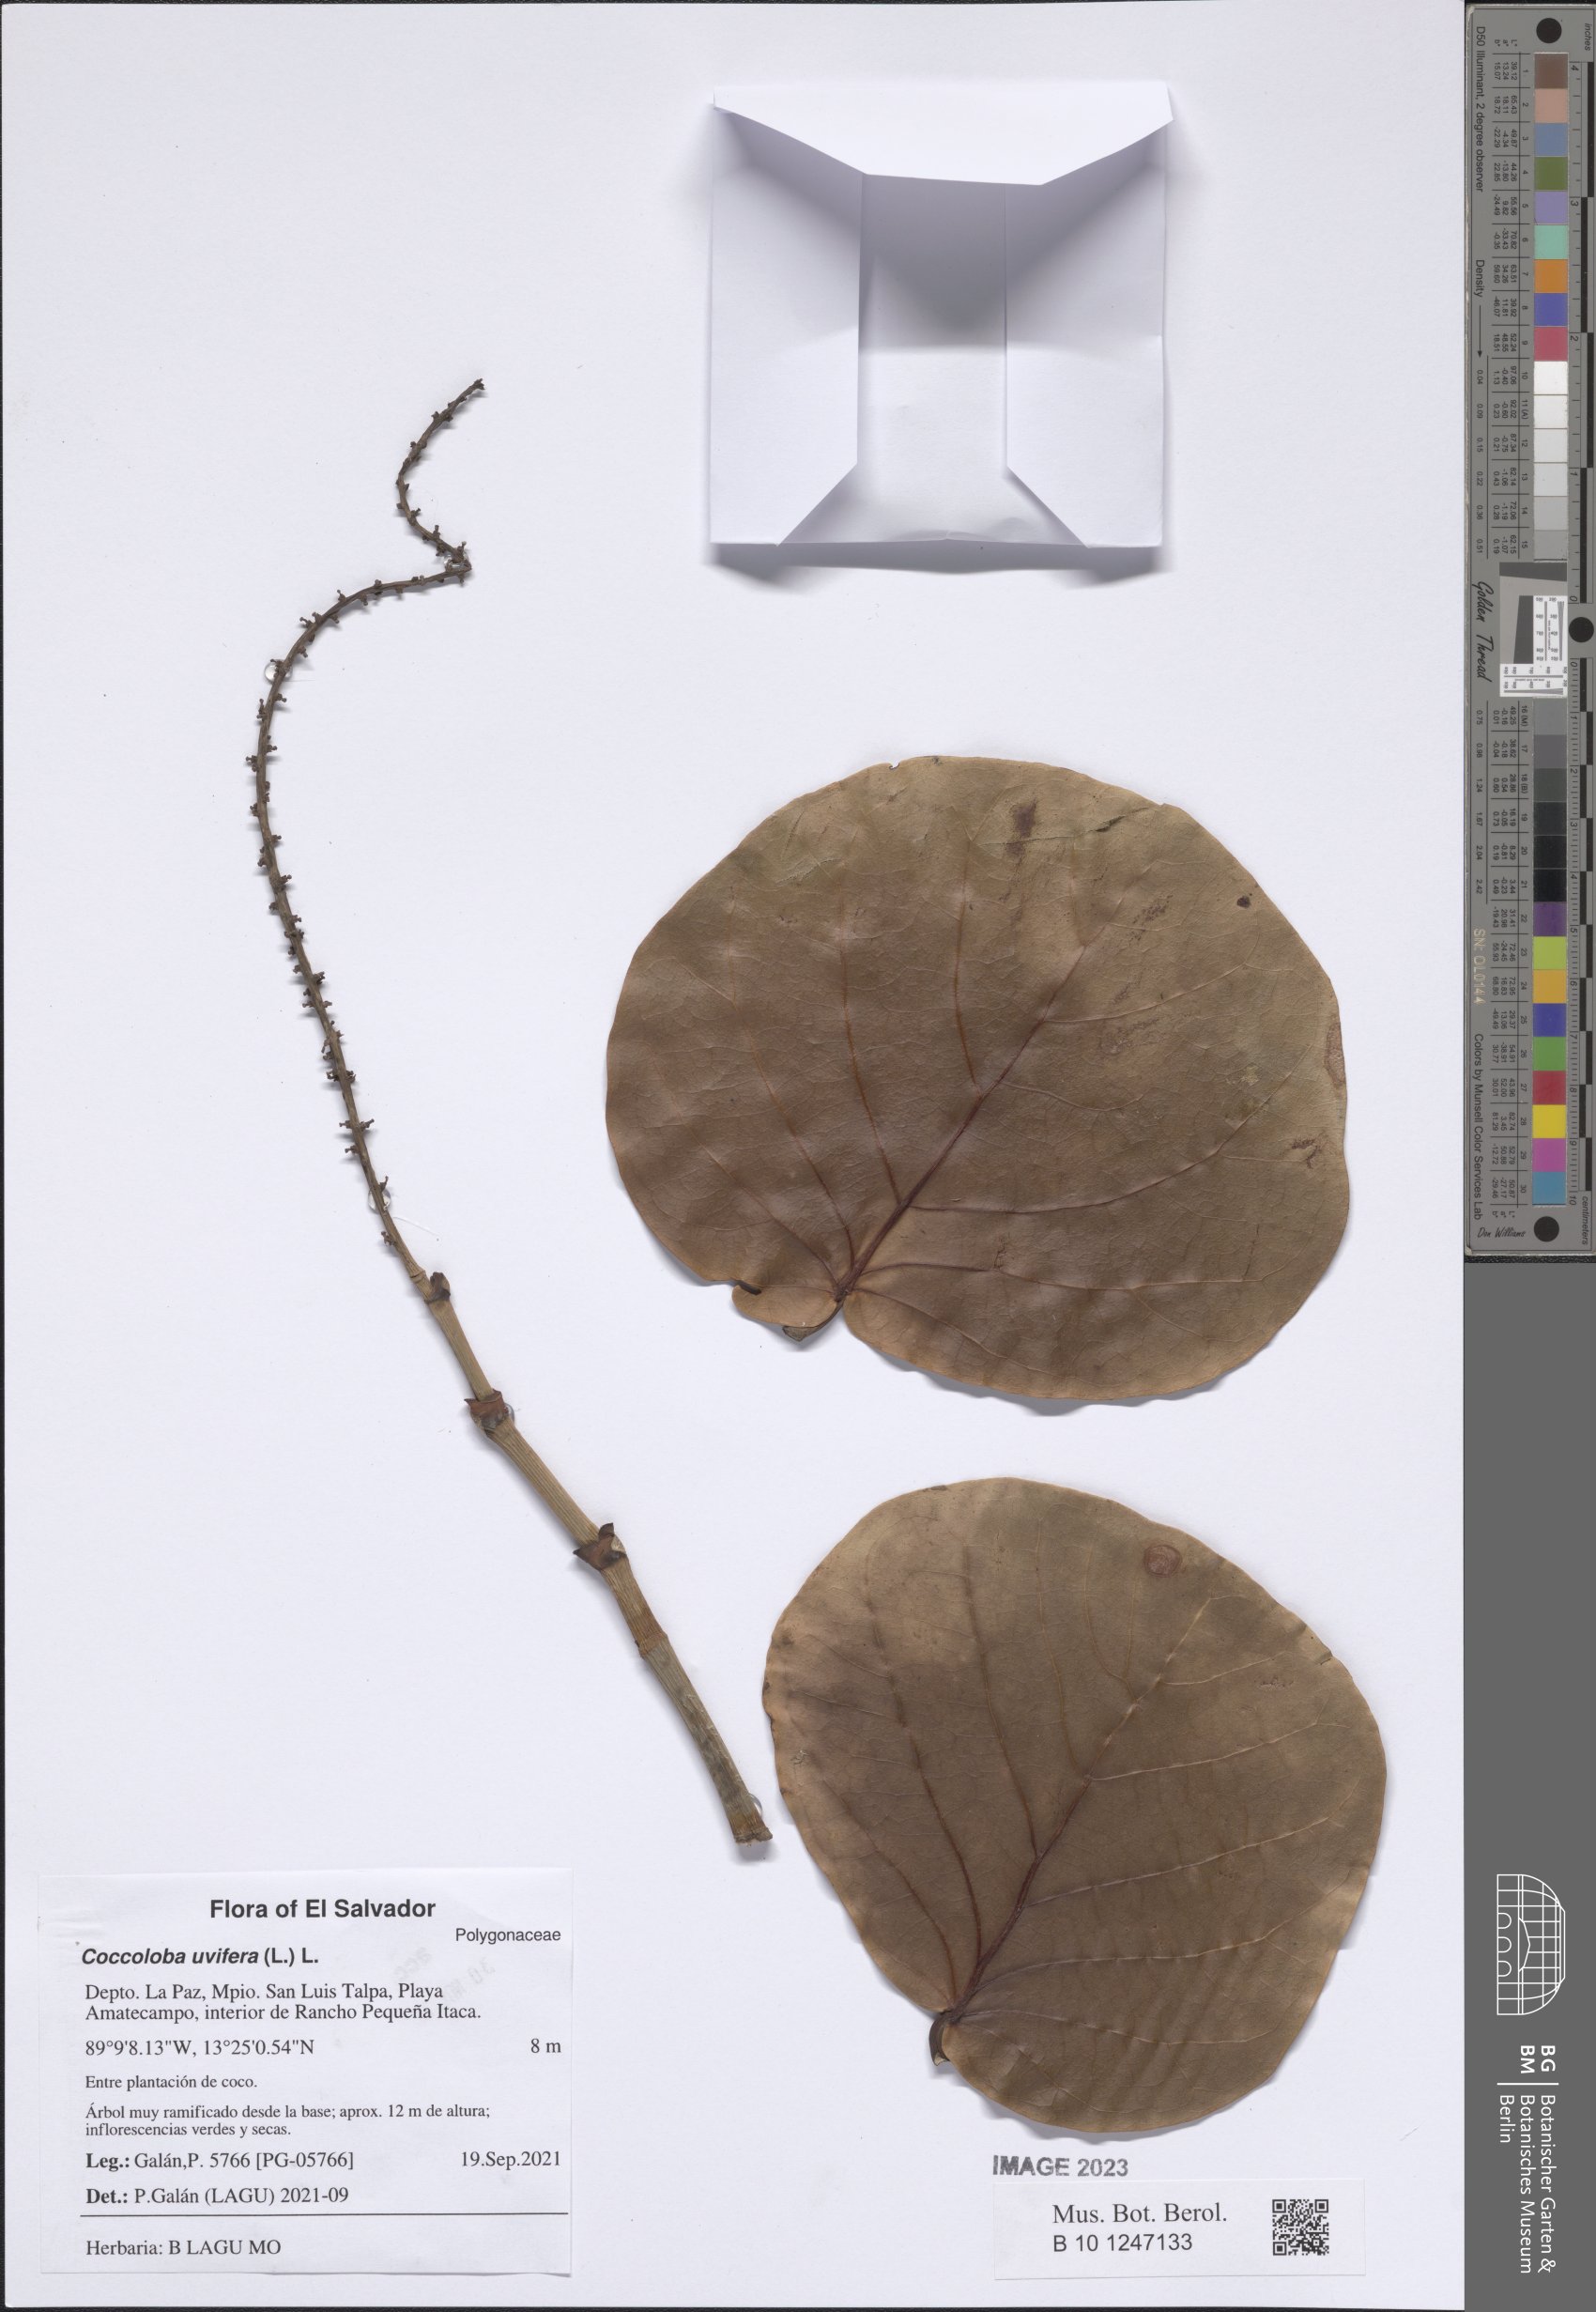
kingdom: Plantae
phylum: Tracheophyta
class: Magnoliopsida
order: Caryophyllales
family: Polygonaceae
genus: Coccoloba
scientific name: Coccoloba uvifera
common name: Seagrape
